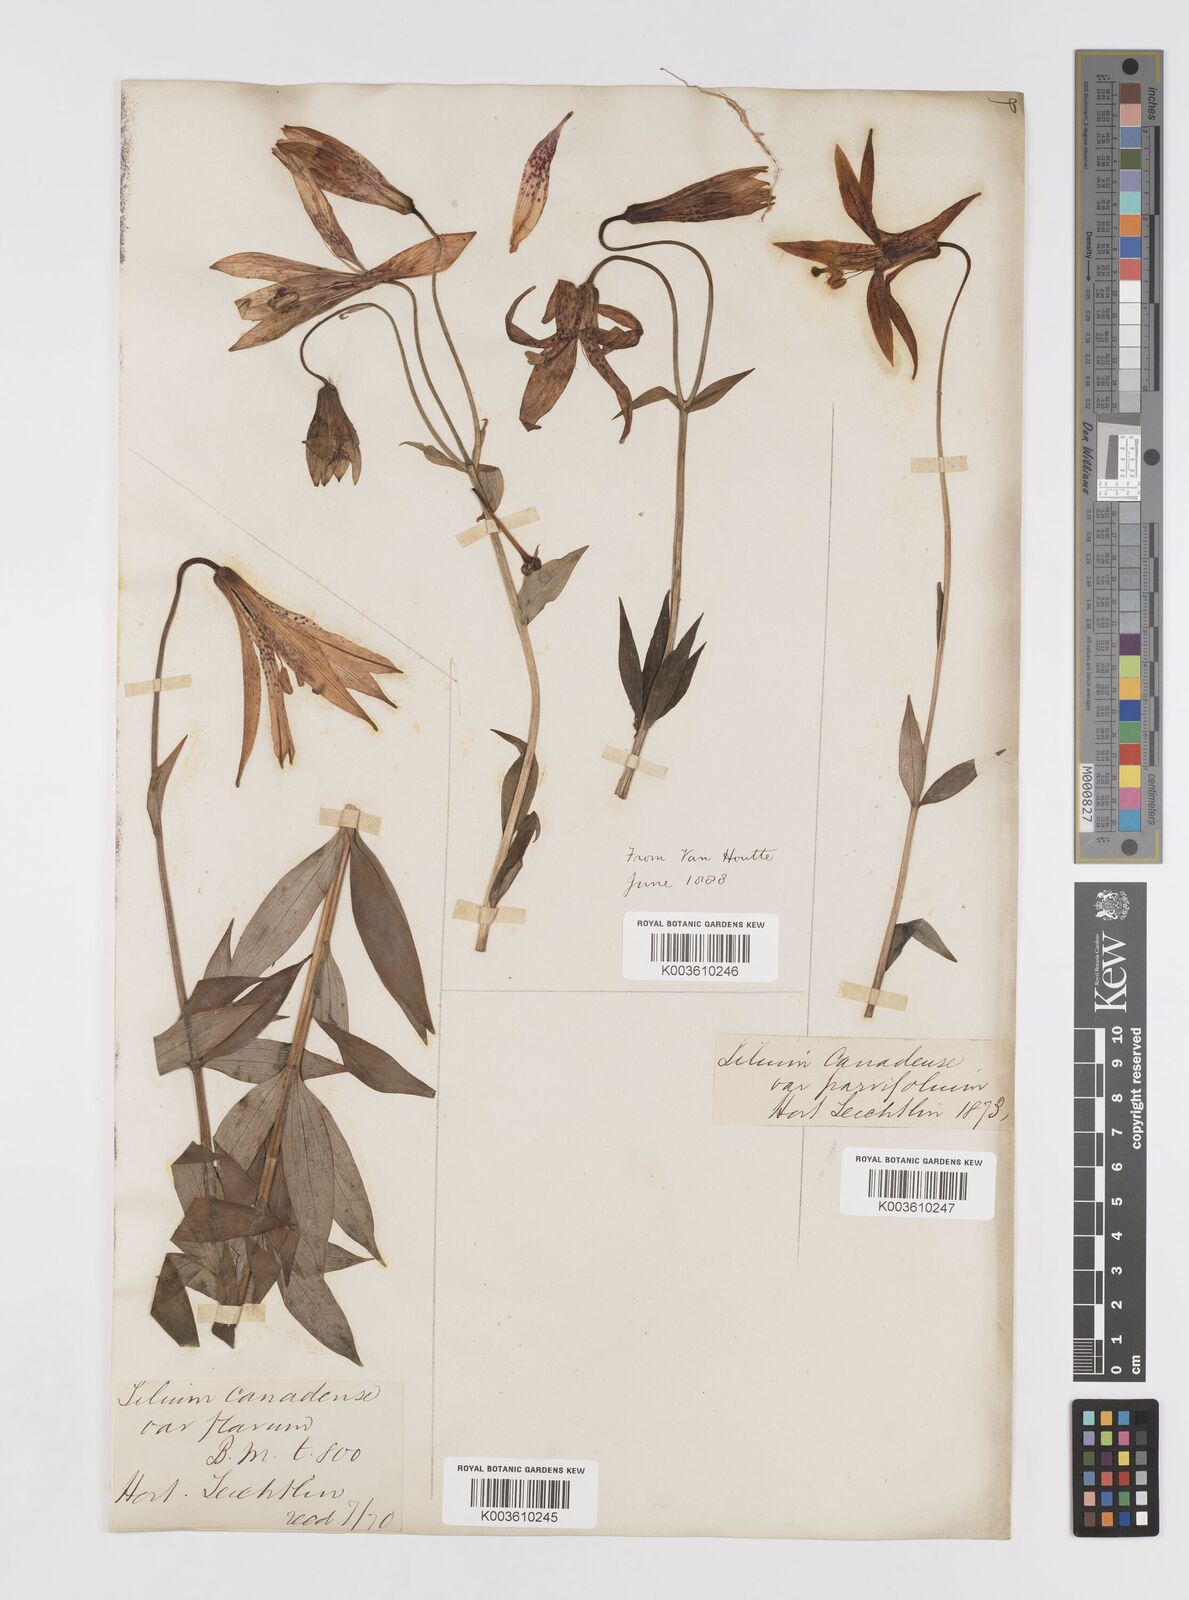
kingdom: Plantae
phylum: Tracheophyta
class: Liliopsida
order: Liliales
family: Liliaceae
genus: Lilium
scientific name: Lilium canadense
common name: Canada lily
